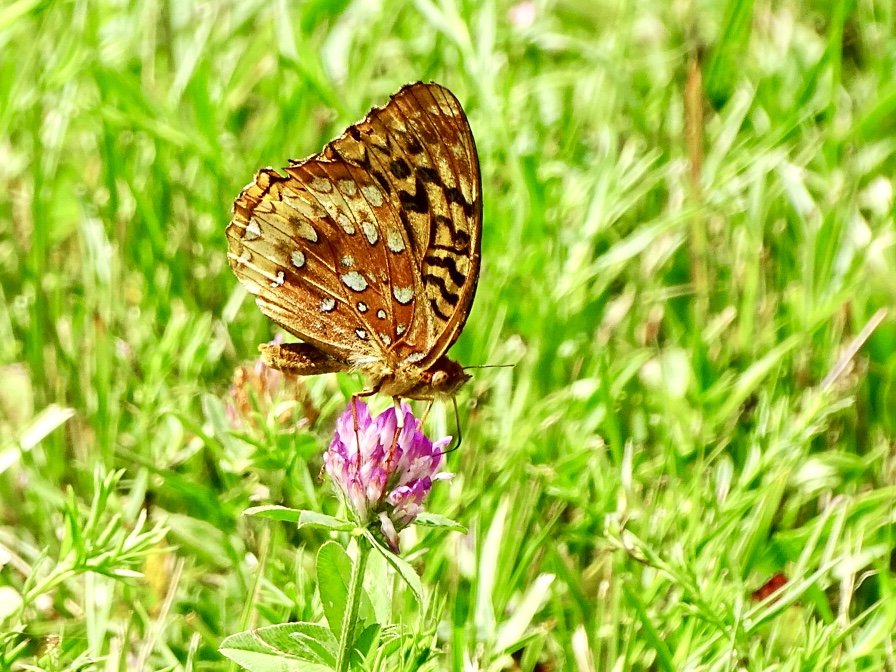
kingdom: Animalia
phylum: Arthropoda
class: Insecta
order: Lepidoptera
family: Nymphalidae
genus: Speyeria
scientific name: Speyeria cybele
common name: Great Spangled Fritillary
